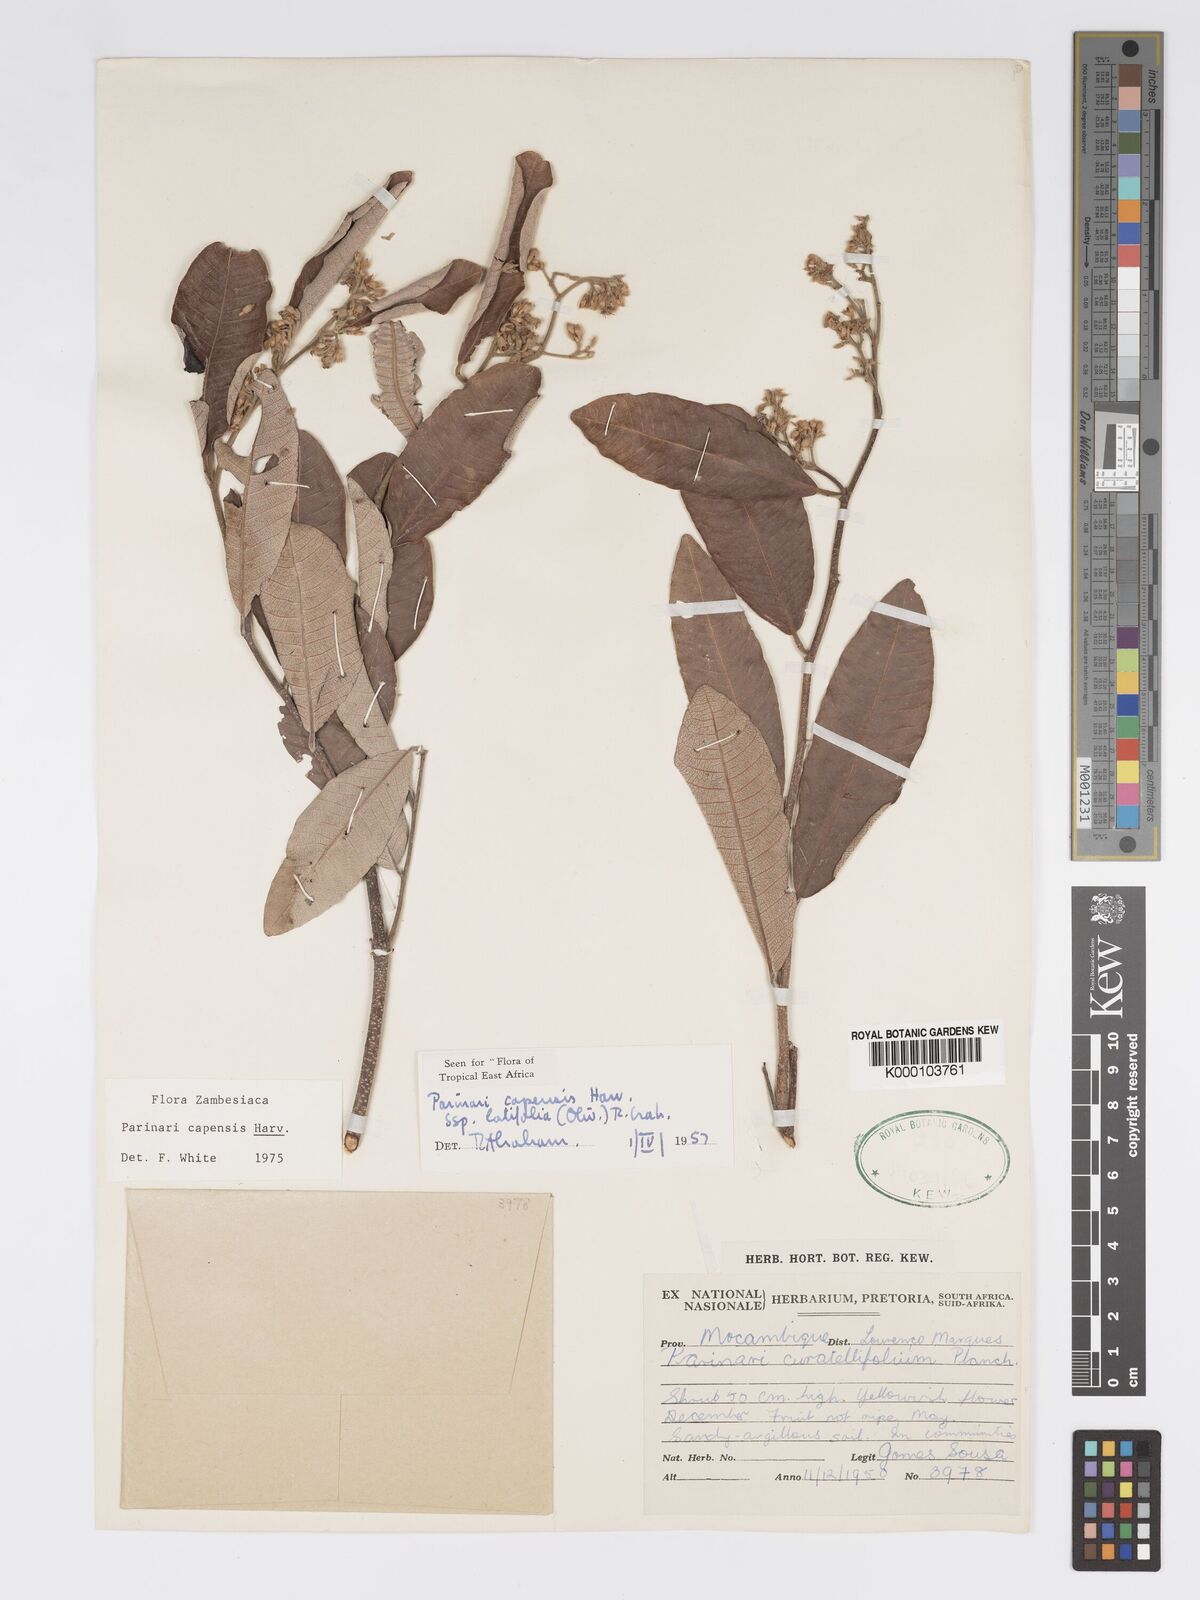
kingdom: Plantae
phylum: Tracheophyta
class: Magnoliopsida
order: Malpighiales
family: Chrysobalanaceae
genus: Parinari
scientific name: Parinari capensis
